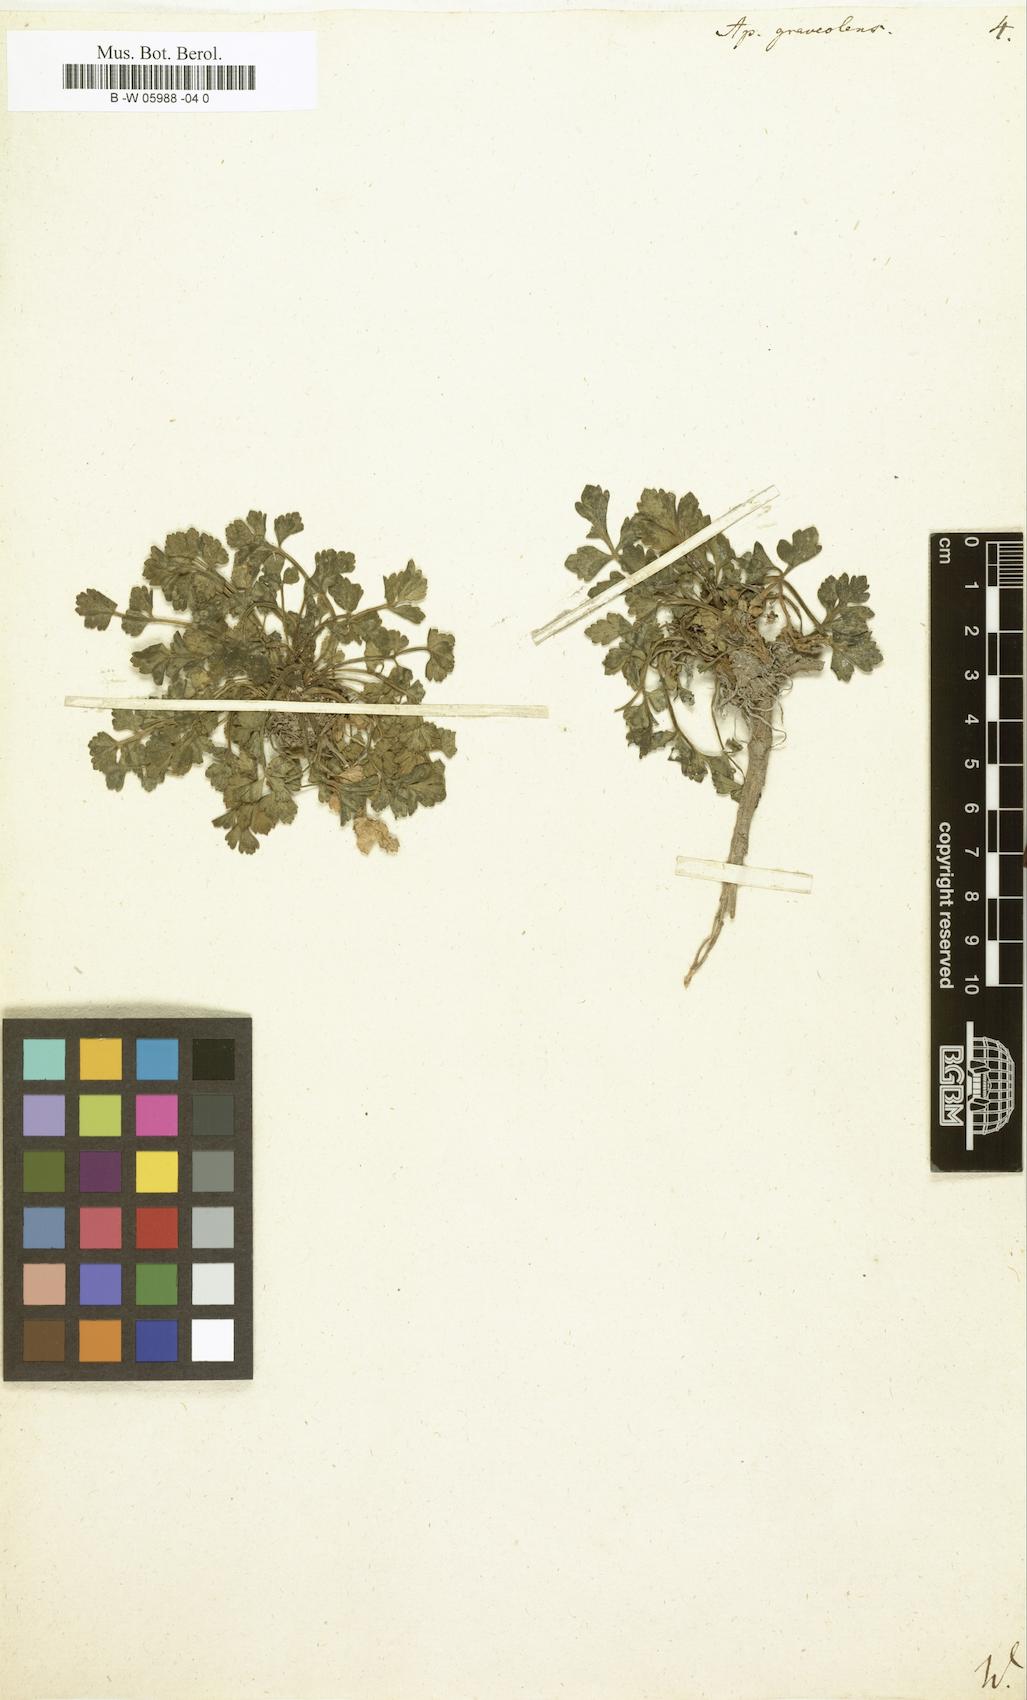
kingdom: Plantae
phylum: Tracheophyta
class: Magnoliopsida
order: Apiales
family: Apiaceae
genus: Apium
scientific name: Apium graveolens
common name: Wild celery
